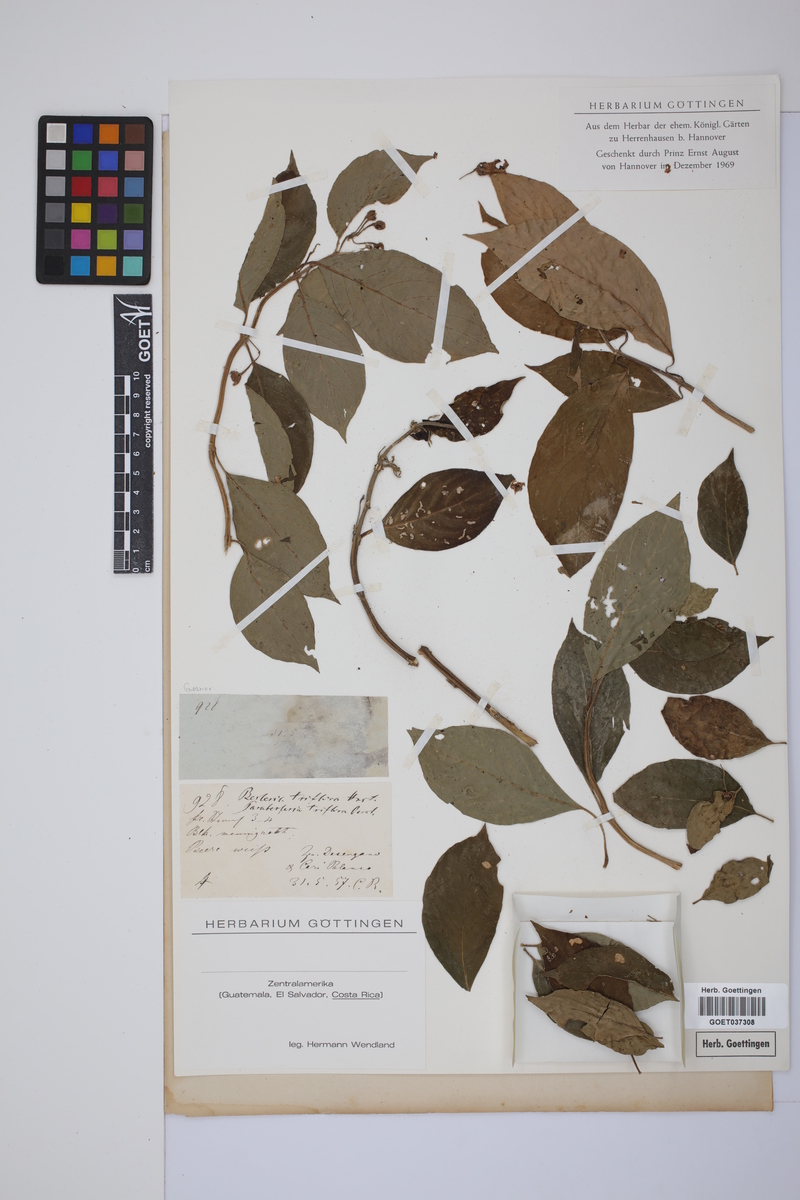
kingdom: Plantae
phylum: Tracheophyta
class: Magnoliopsida
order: Lamiales
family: Gesneriaceae
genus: Besleria
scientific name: Besleria triflora
